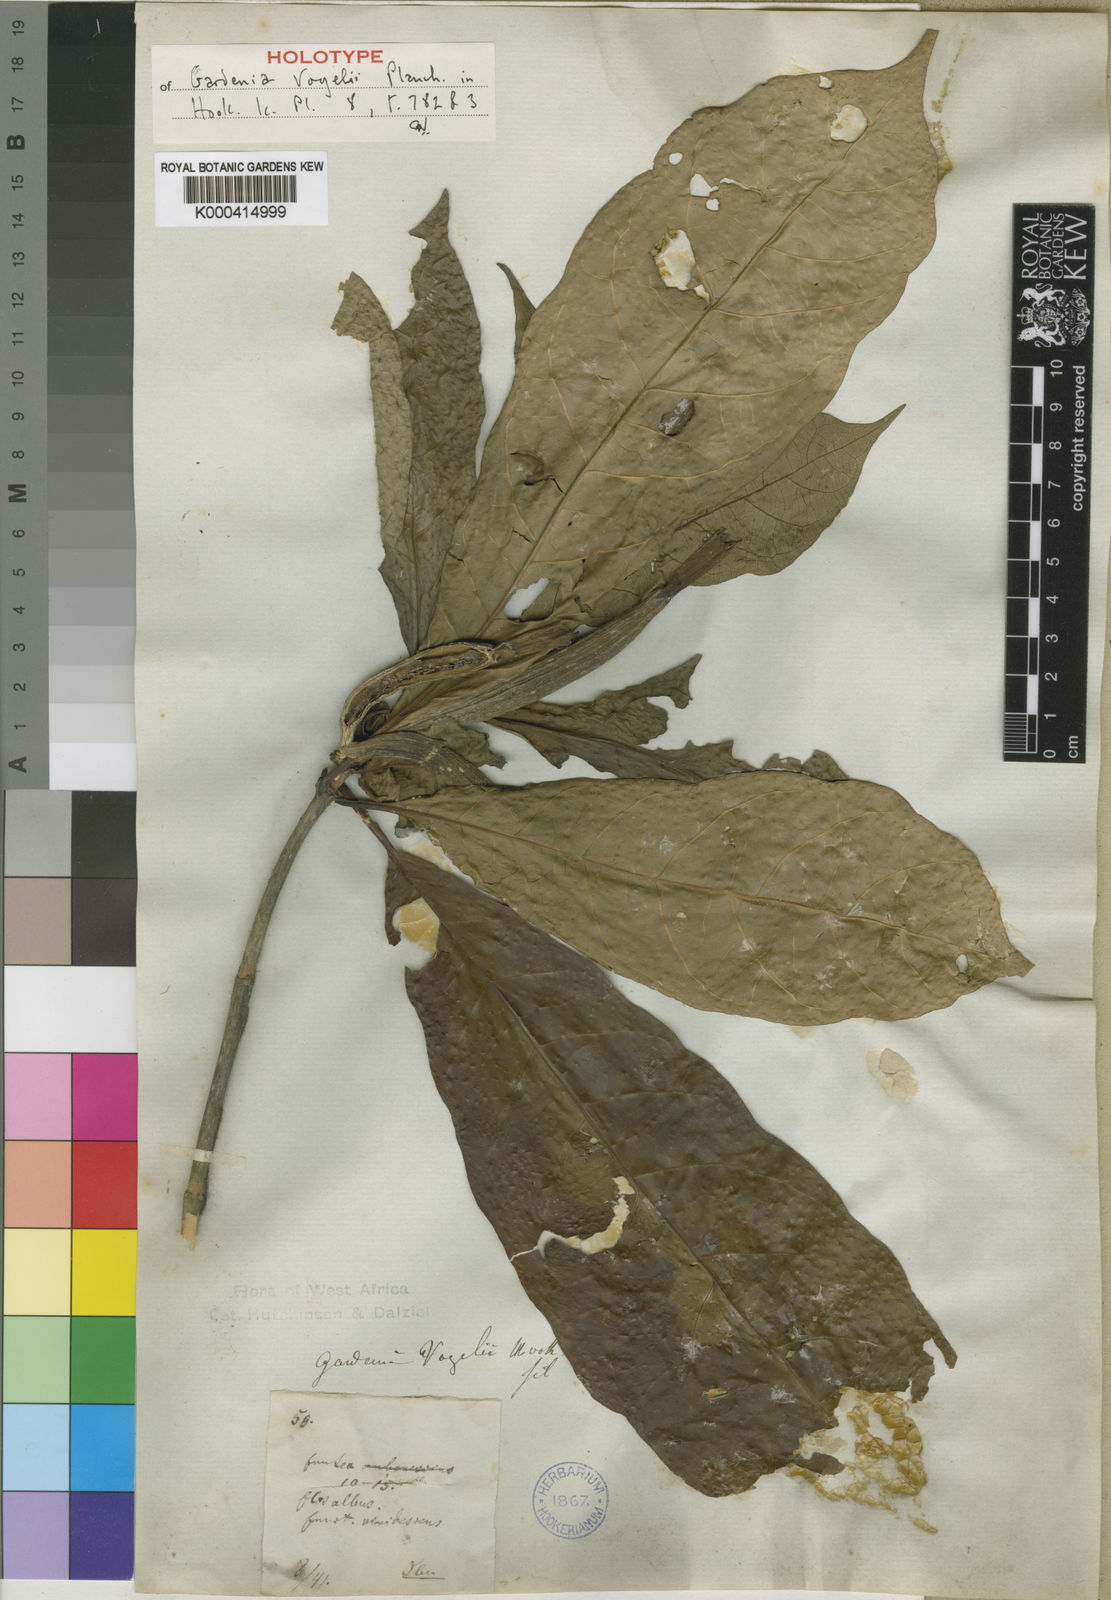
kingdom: Plantae
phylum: Tracheophyta
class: Magnoliopsida
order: Gentianales
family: Rubiaceae
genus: Gardenia
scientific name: Gardenia vogelii
